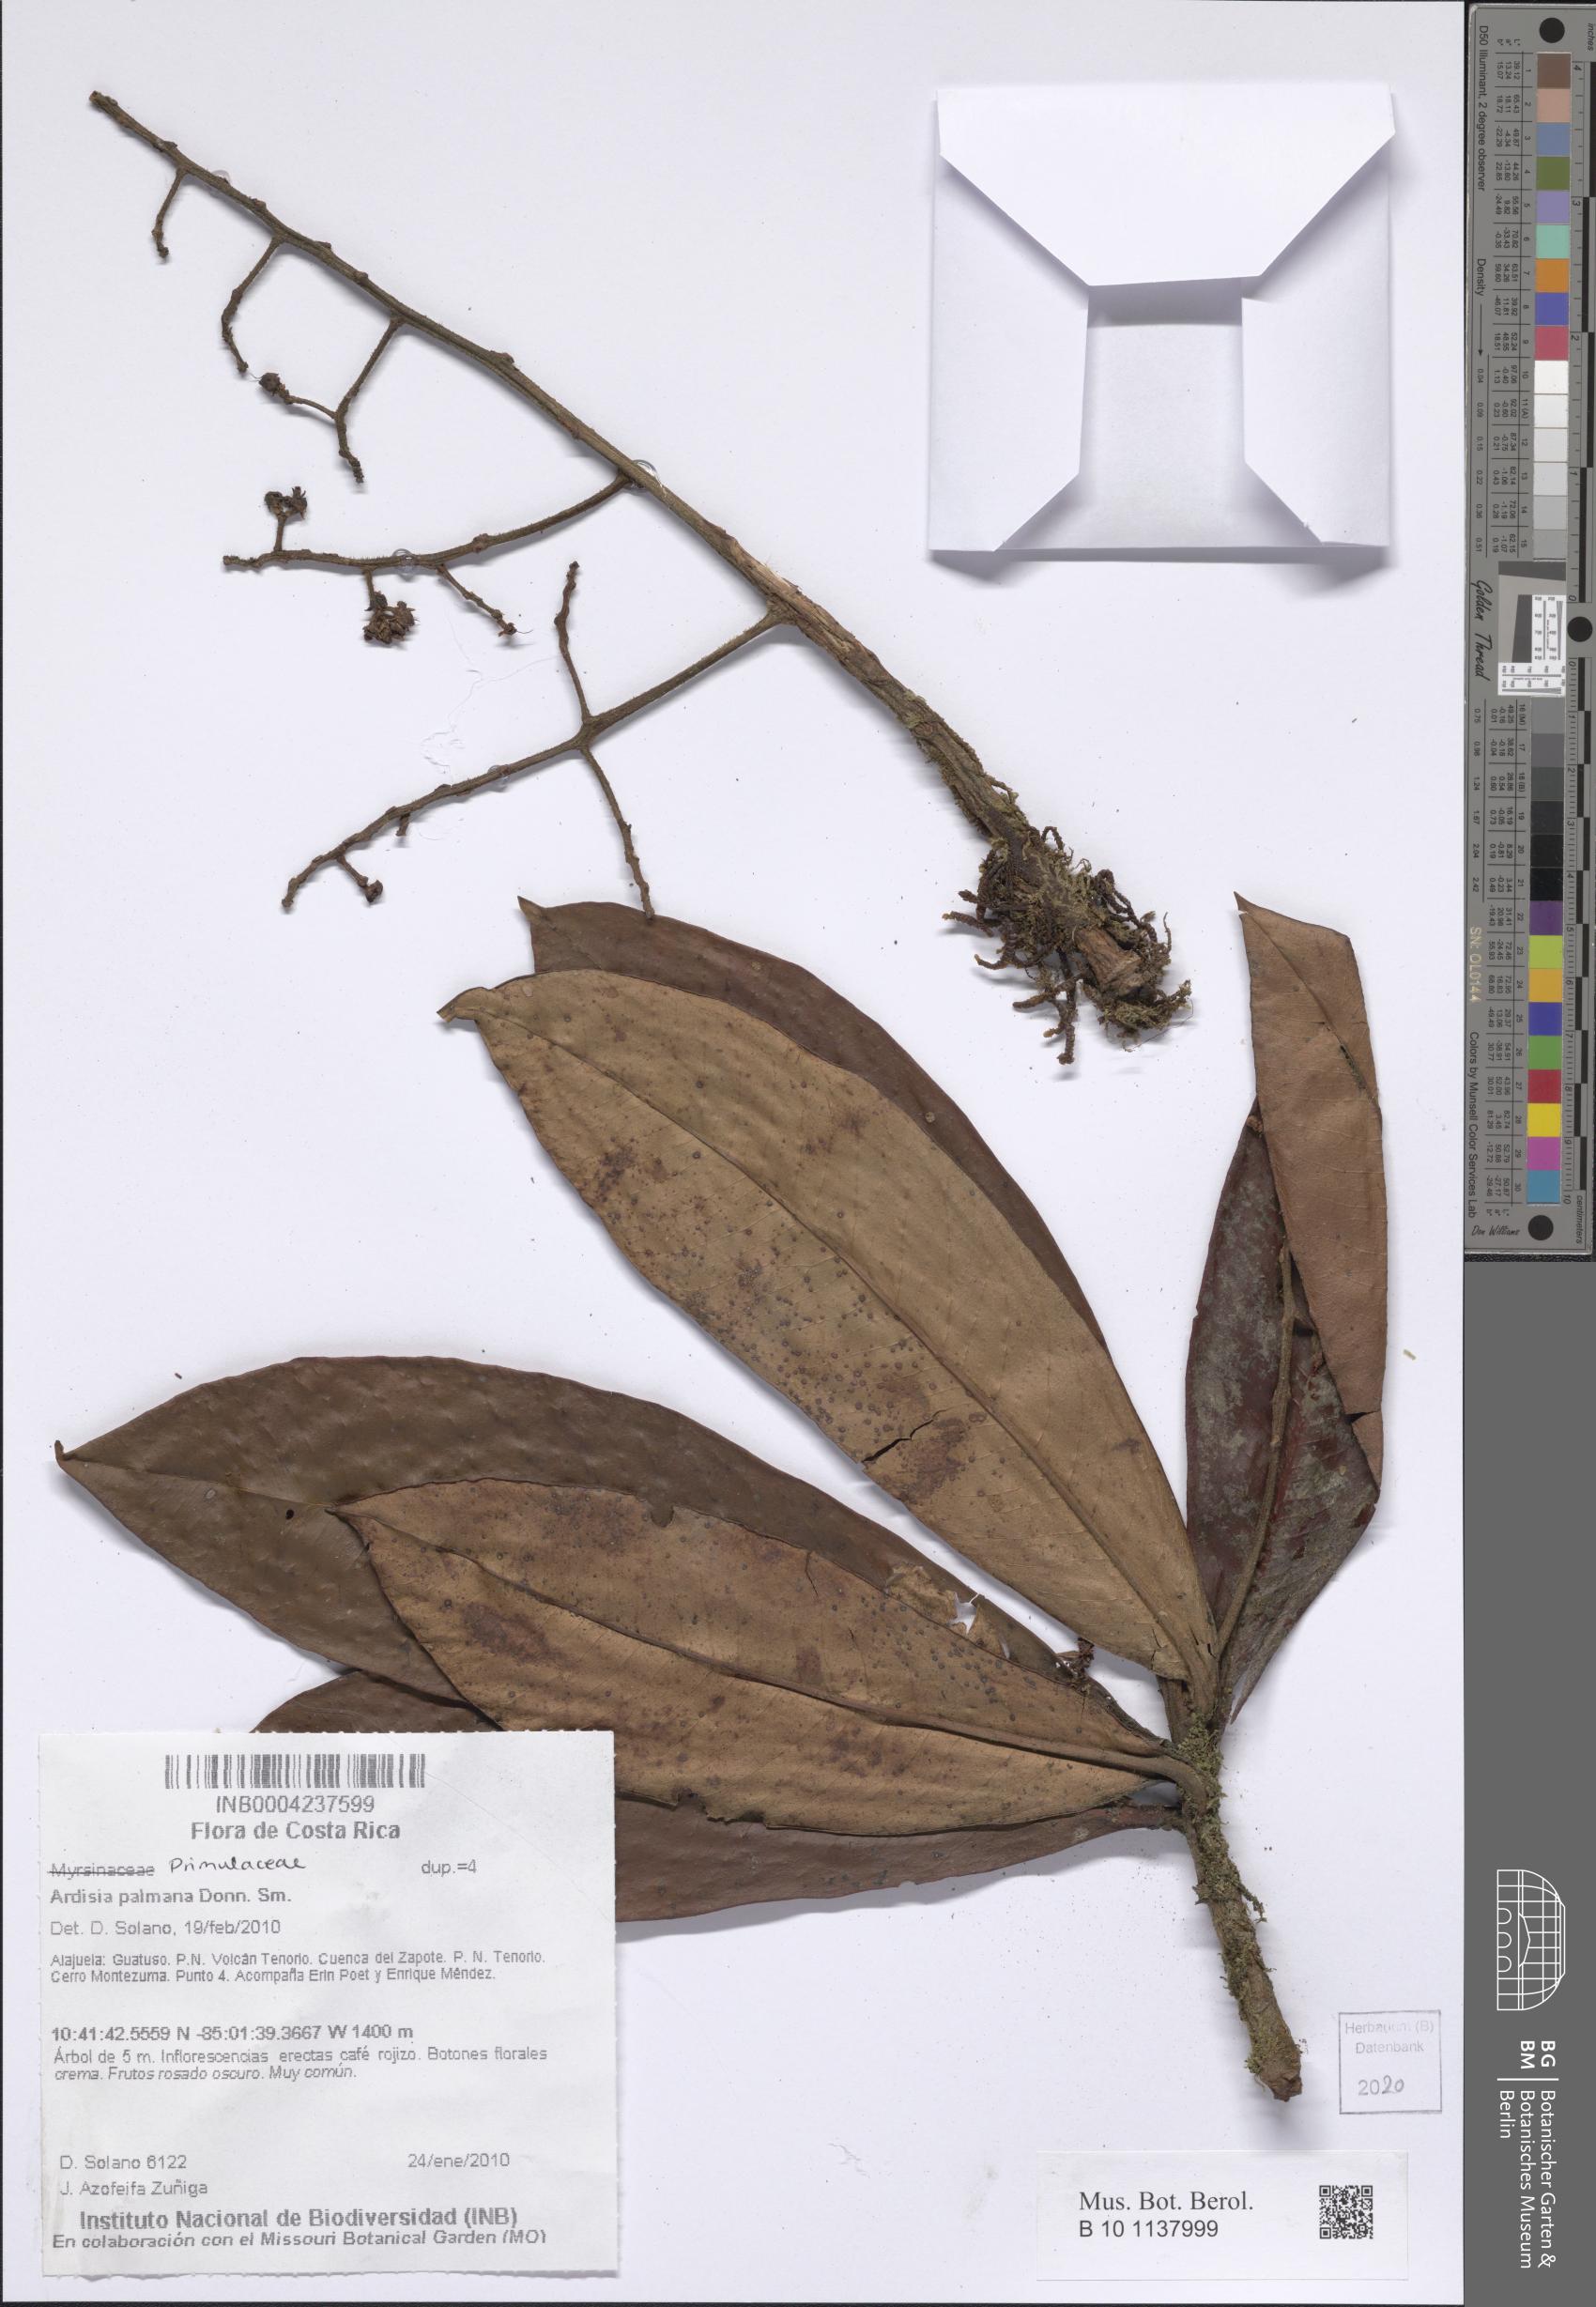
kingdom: Plantae
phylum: Tracheophyta
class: Magnoliopsida
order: Ericales
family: Primulaceae
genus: Ardisia
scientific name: Ardisia palmana
